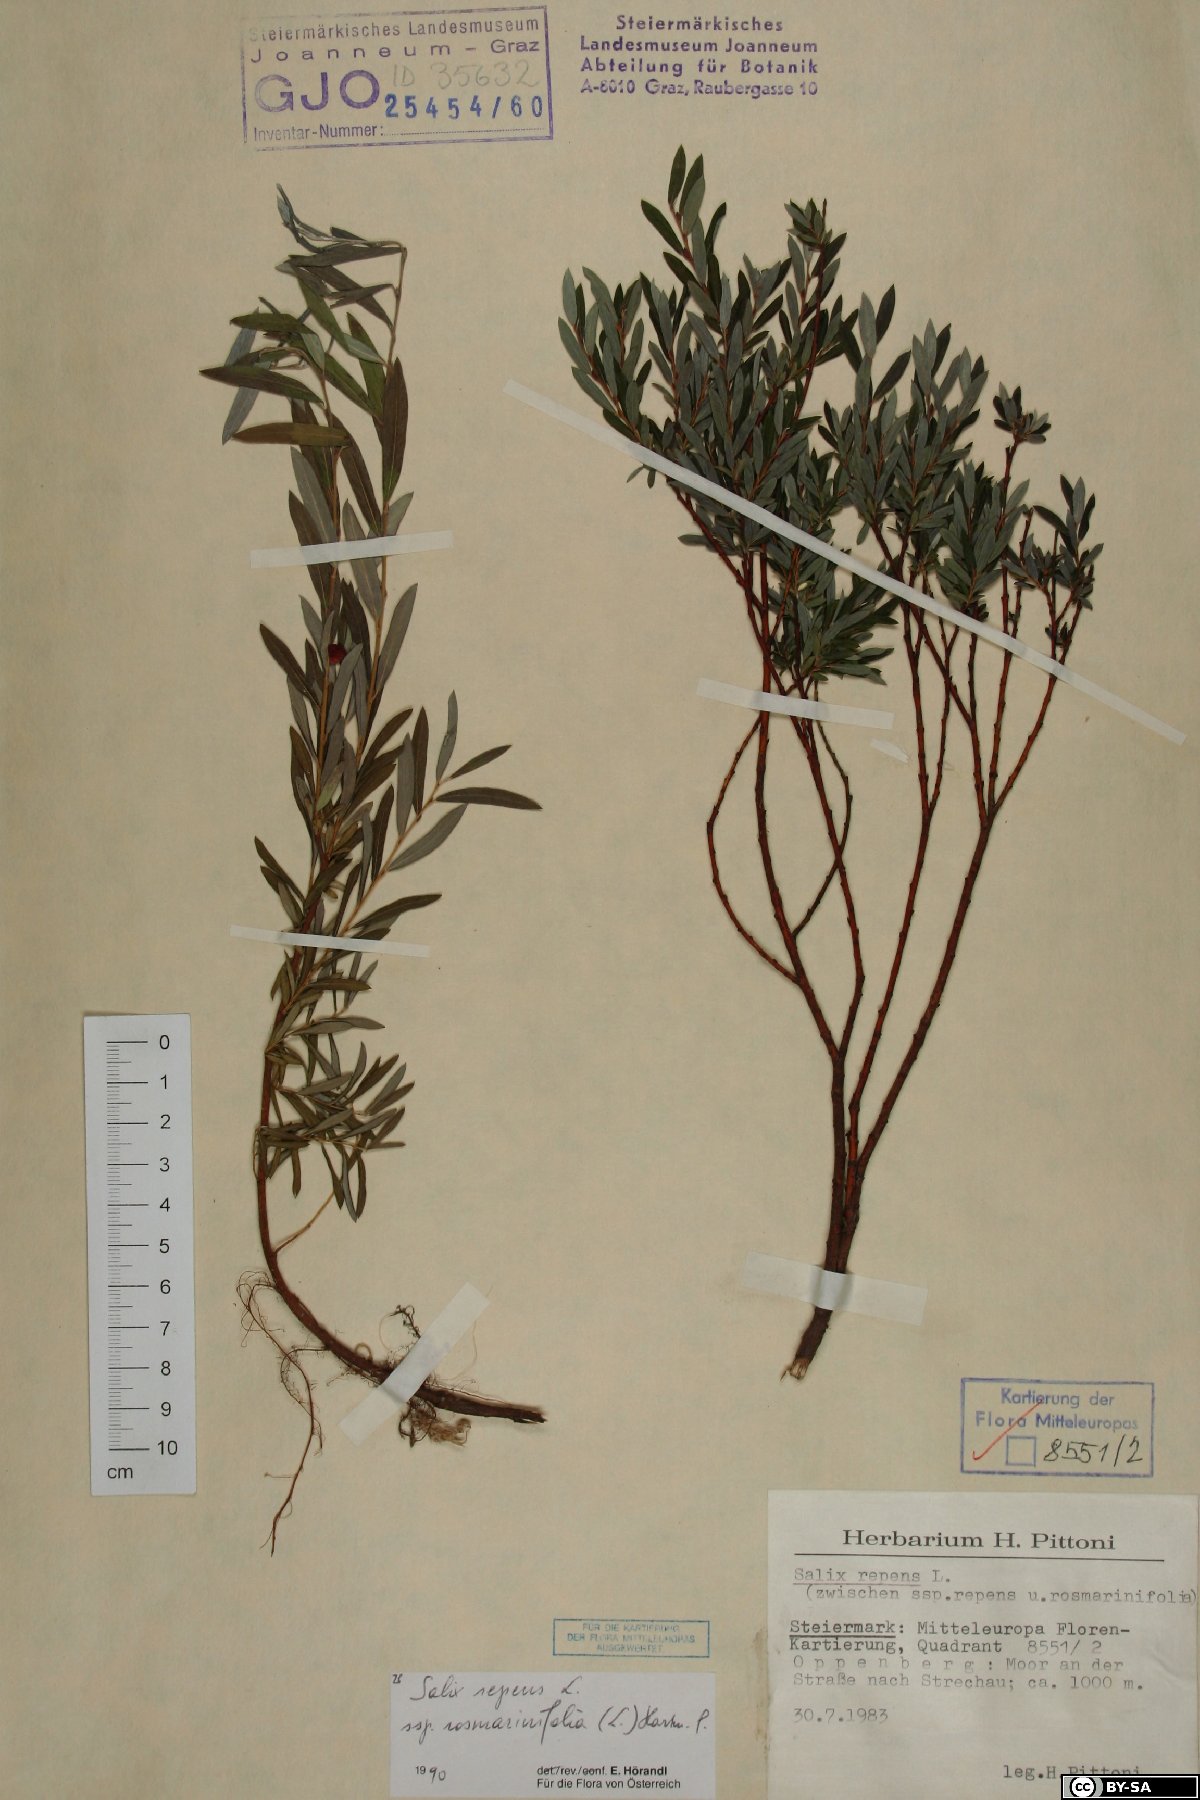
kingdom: Plantae
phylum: Tracheophyta
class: Magnoliopsida
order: Malpighiales
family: Salicaceae
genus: Salix
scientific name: Salix repens
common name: Creeping willow
